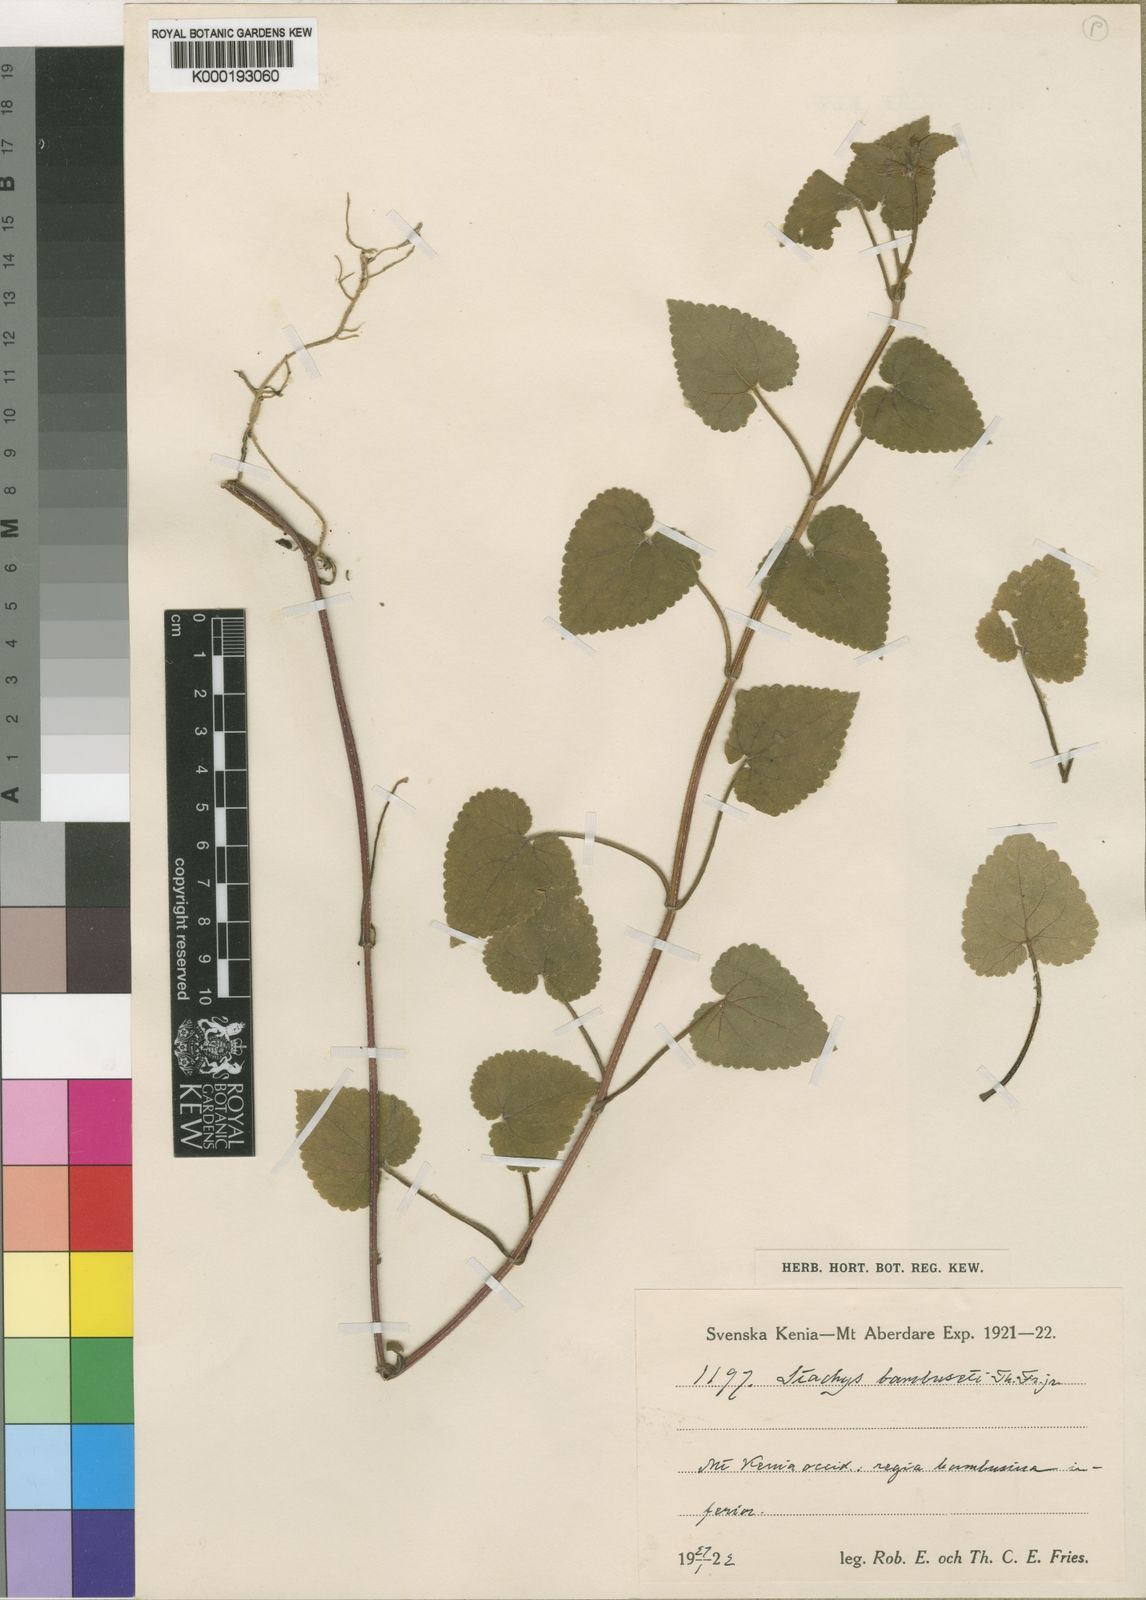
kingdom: Plantae
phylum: Tracheophyta
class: Magnoliopsida
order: Lamiales
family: Lamiaceae
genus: Stachys
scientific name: Stachys aculeolata
